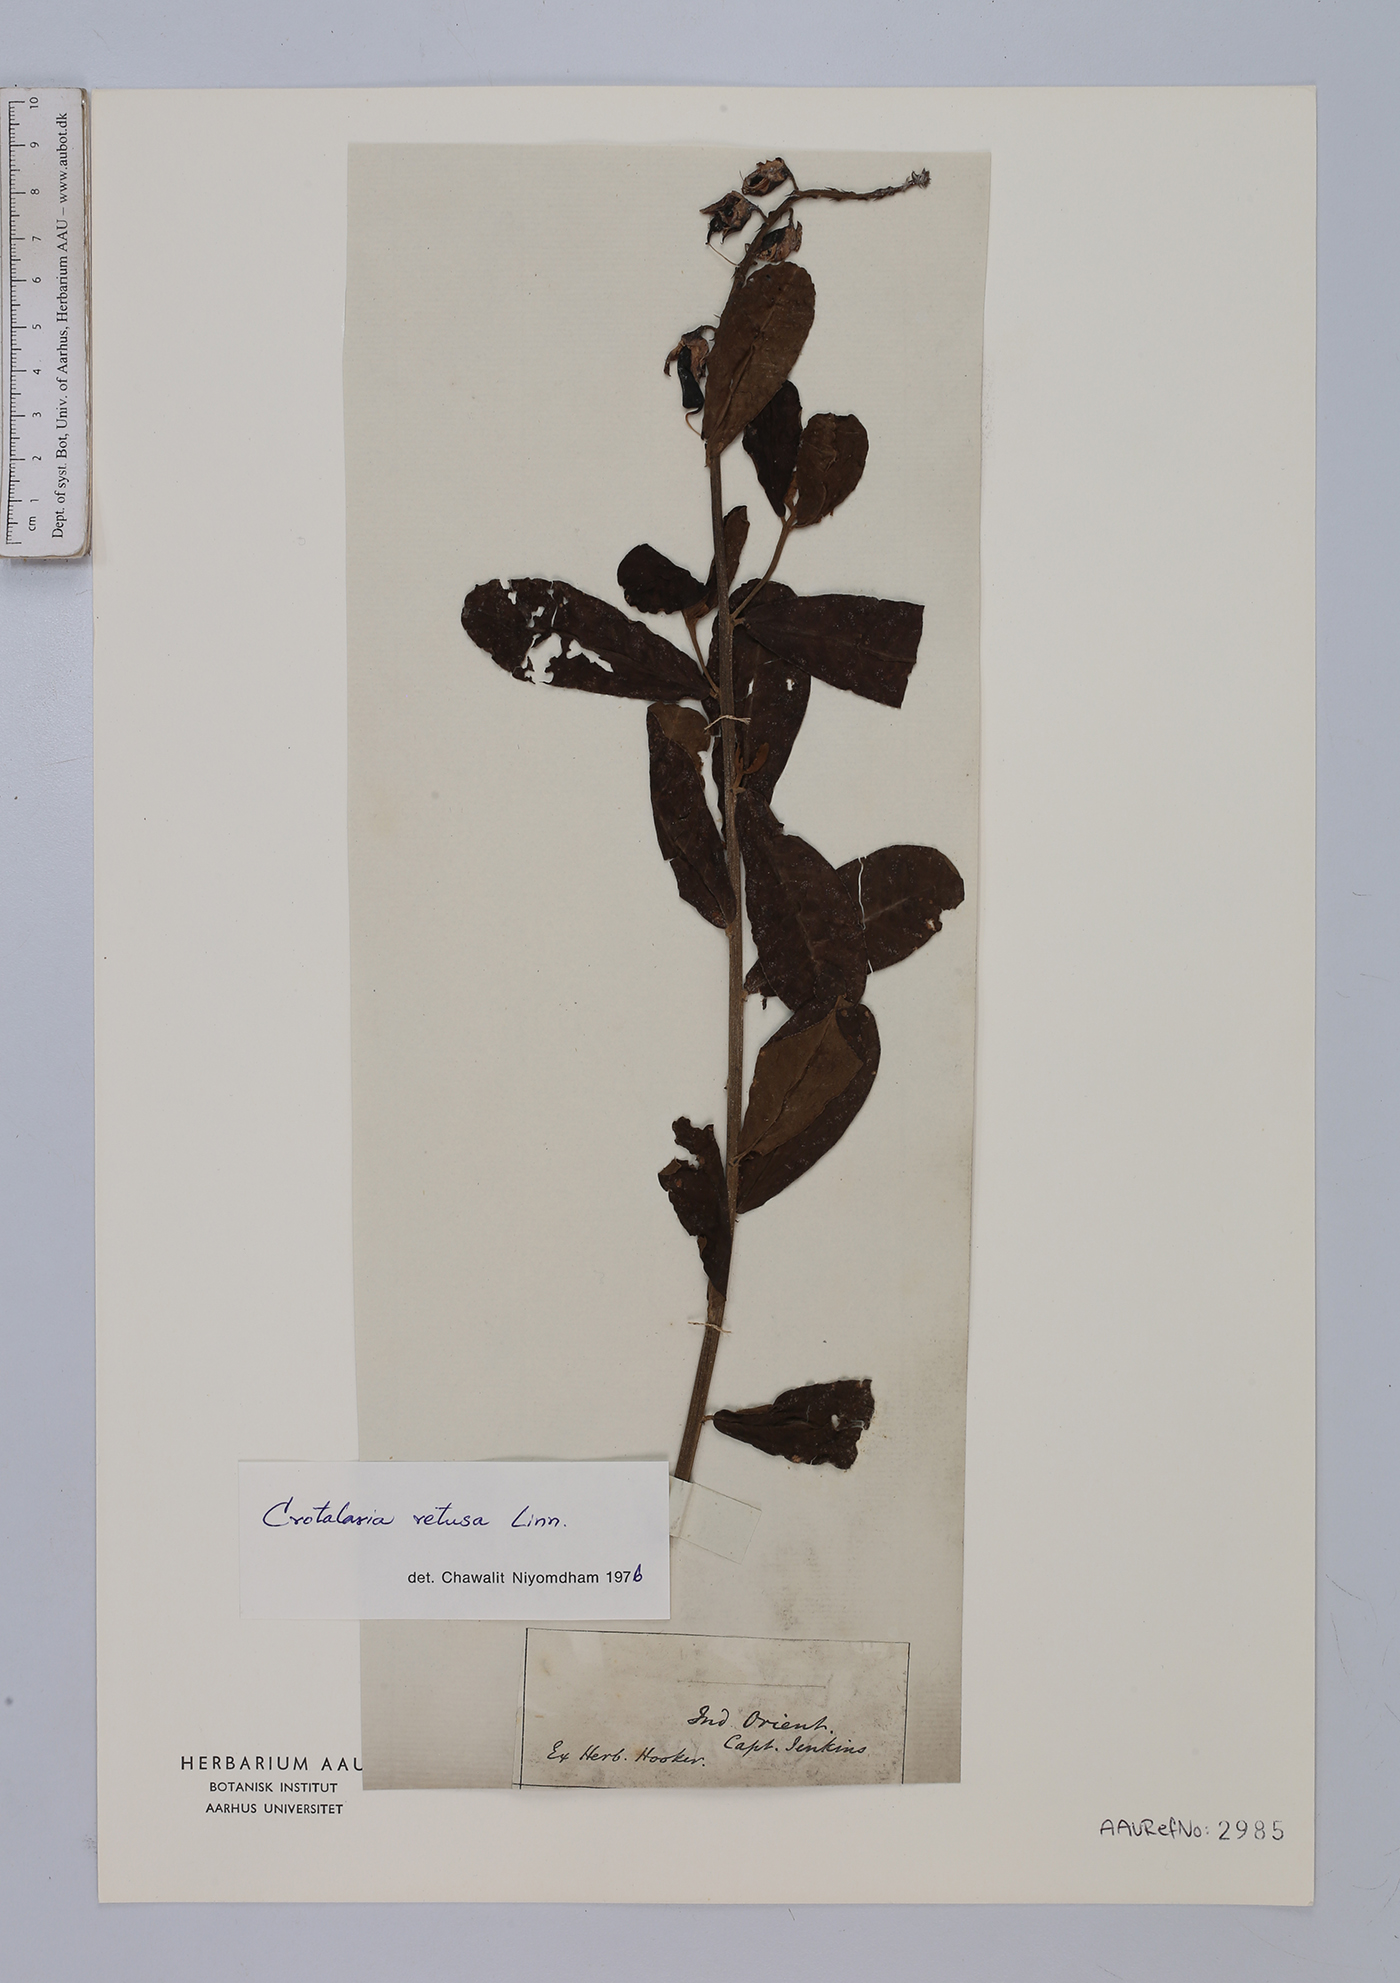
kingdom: Plantae
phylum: Tracheophyta
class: Magnoliopsida
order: Fabales
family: Fabaceae
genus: Crotalaria
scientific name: Crotalaria retusa
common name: Rattleweed
